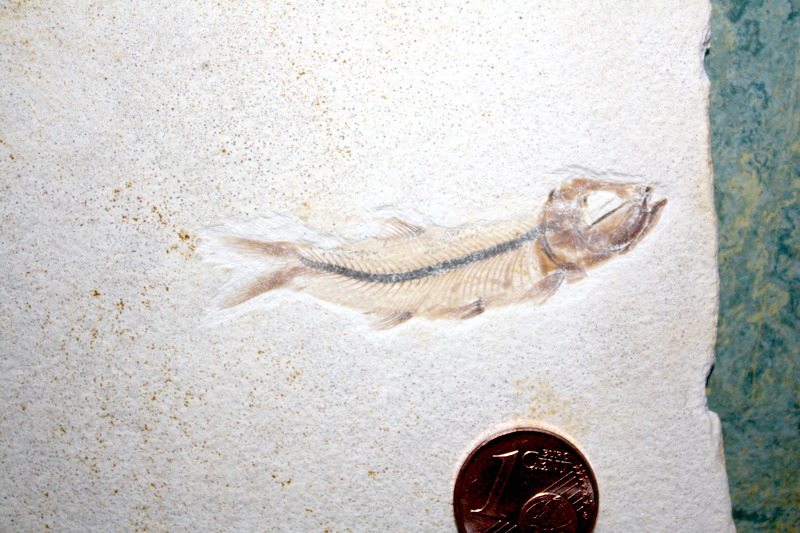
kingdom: Animalia
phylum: Chordata
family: Ascalaboidae
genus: Ebertichthys
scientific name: Ebertichthys ettlingensis
